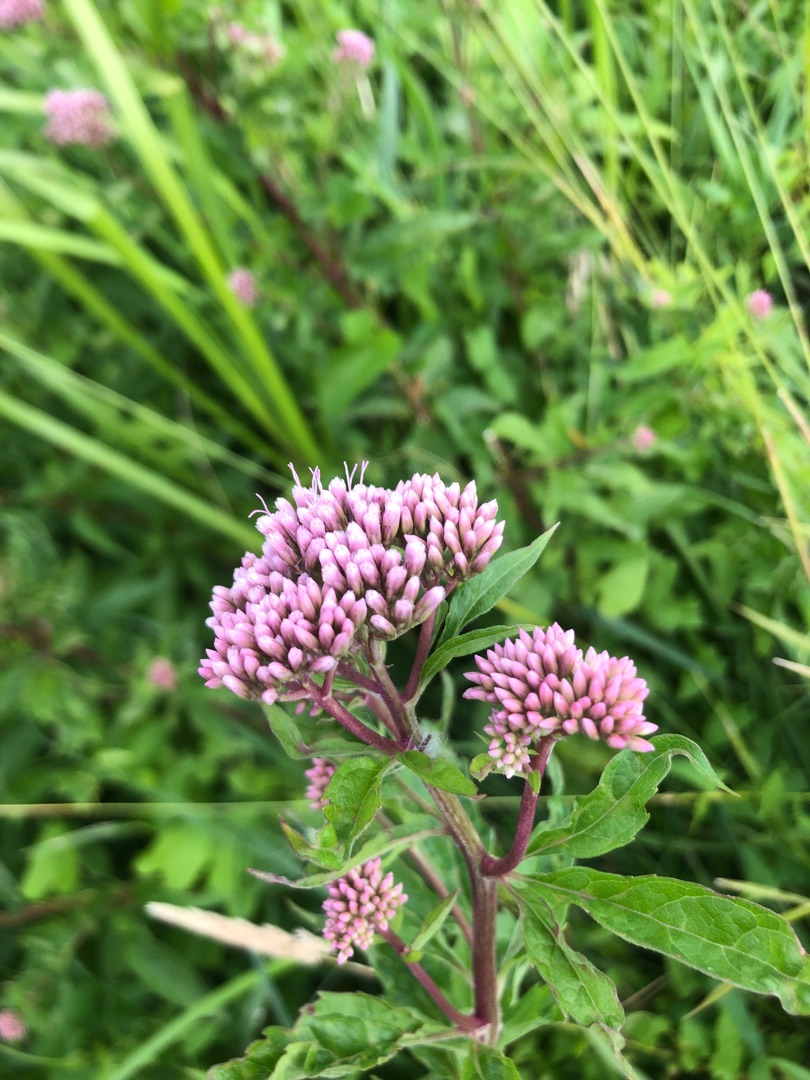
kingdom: Plantae
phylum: Tracheophyta
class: Magnoliopsida
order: Asterales
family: Asteraceae
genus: Eupatorium
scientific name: Eupatorium cannabinum
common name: Hjortetrøst
